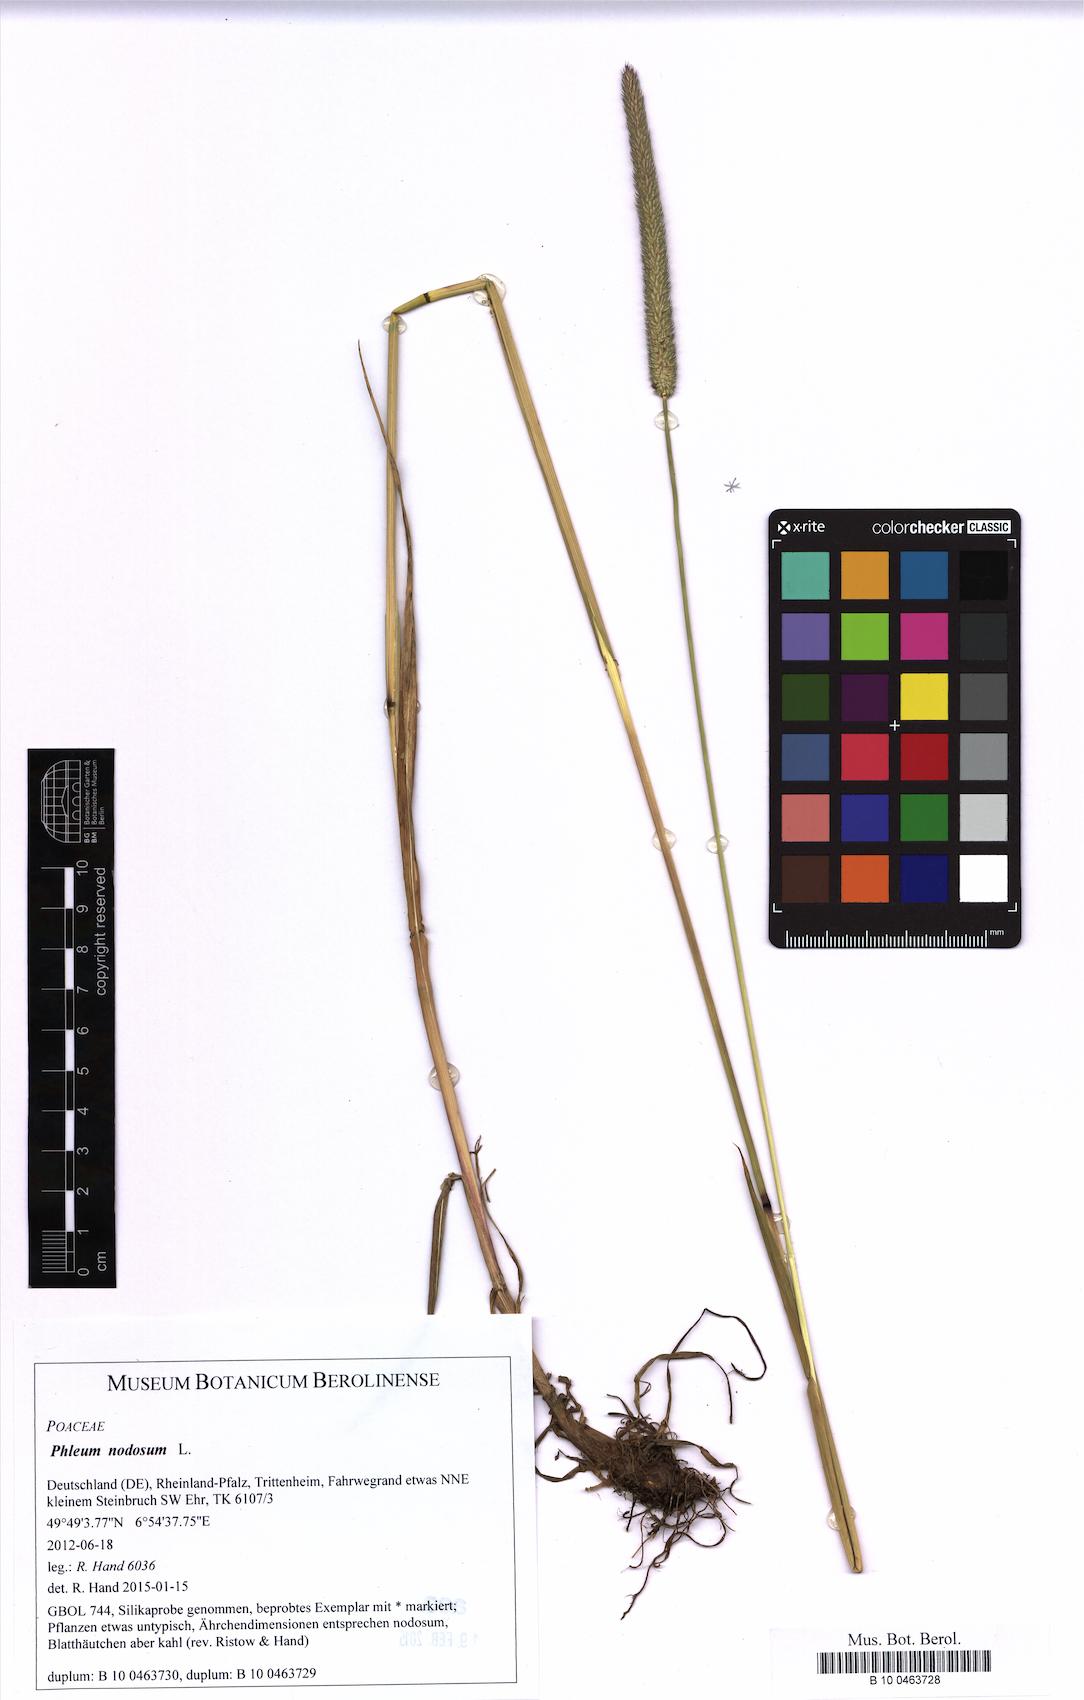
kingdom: Plantae
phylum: Tracheophyta
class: Liliopsida
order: Poales
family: Poaceae
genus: Phleum
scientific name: Phleum pratense
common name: Timothy grass
